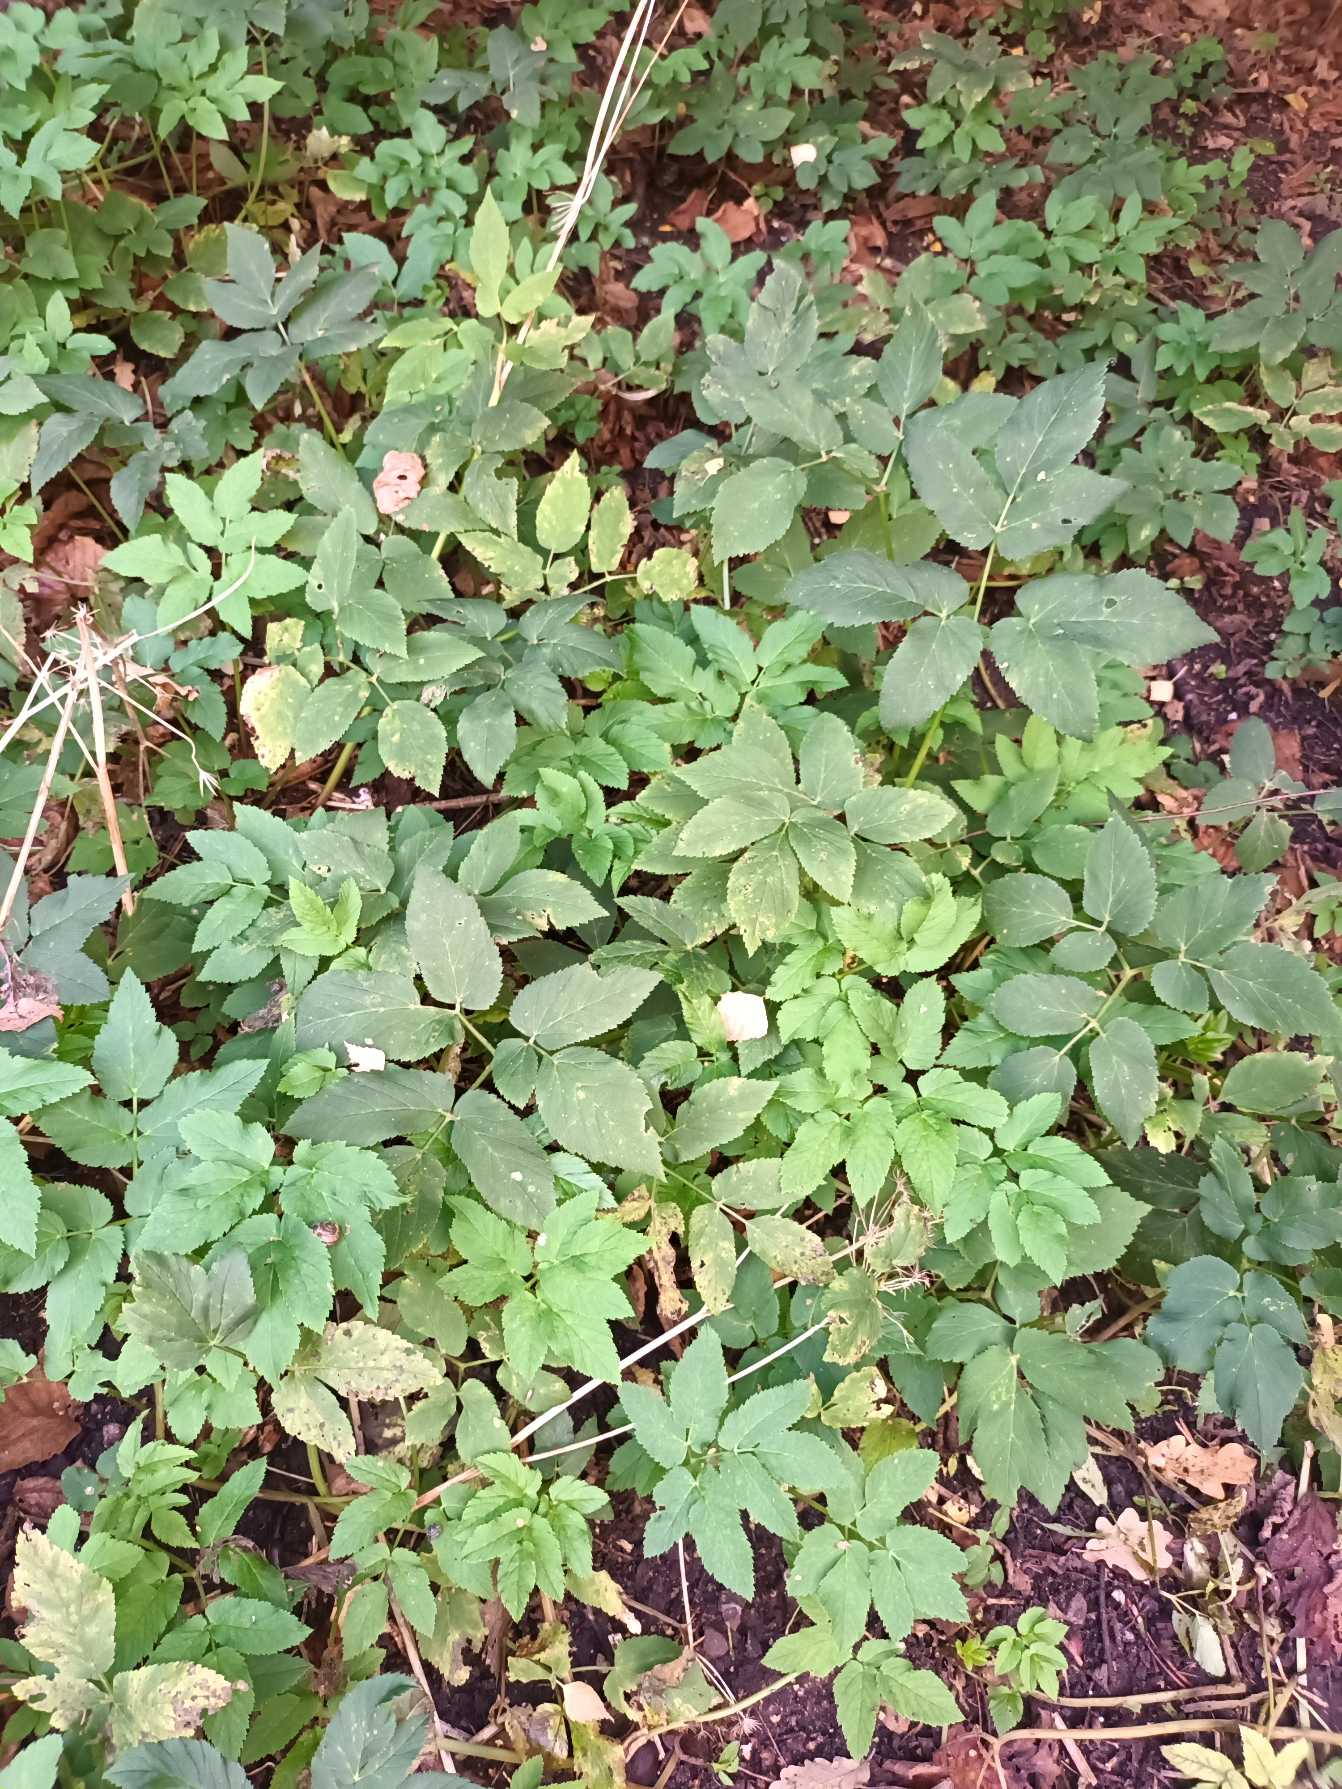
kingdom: Plantae
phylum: Tracheophyta
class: Magnoliopsida
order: Apiales
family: Apiaceae
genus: Aegopodium
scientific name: Aegopodium podagraria
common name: Skvalderkål
